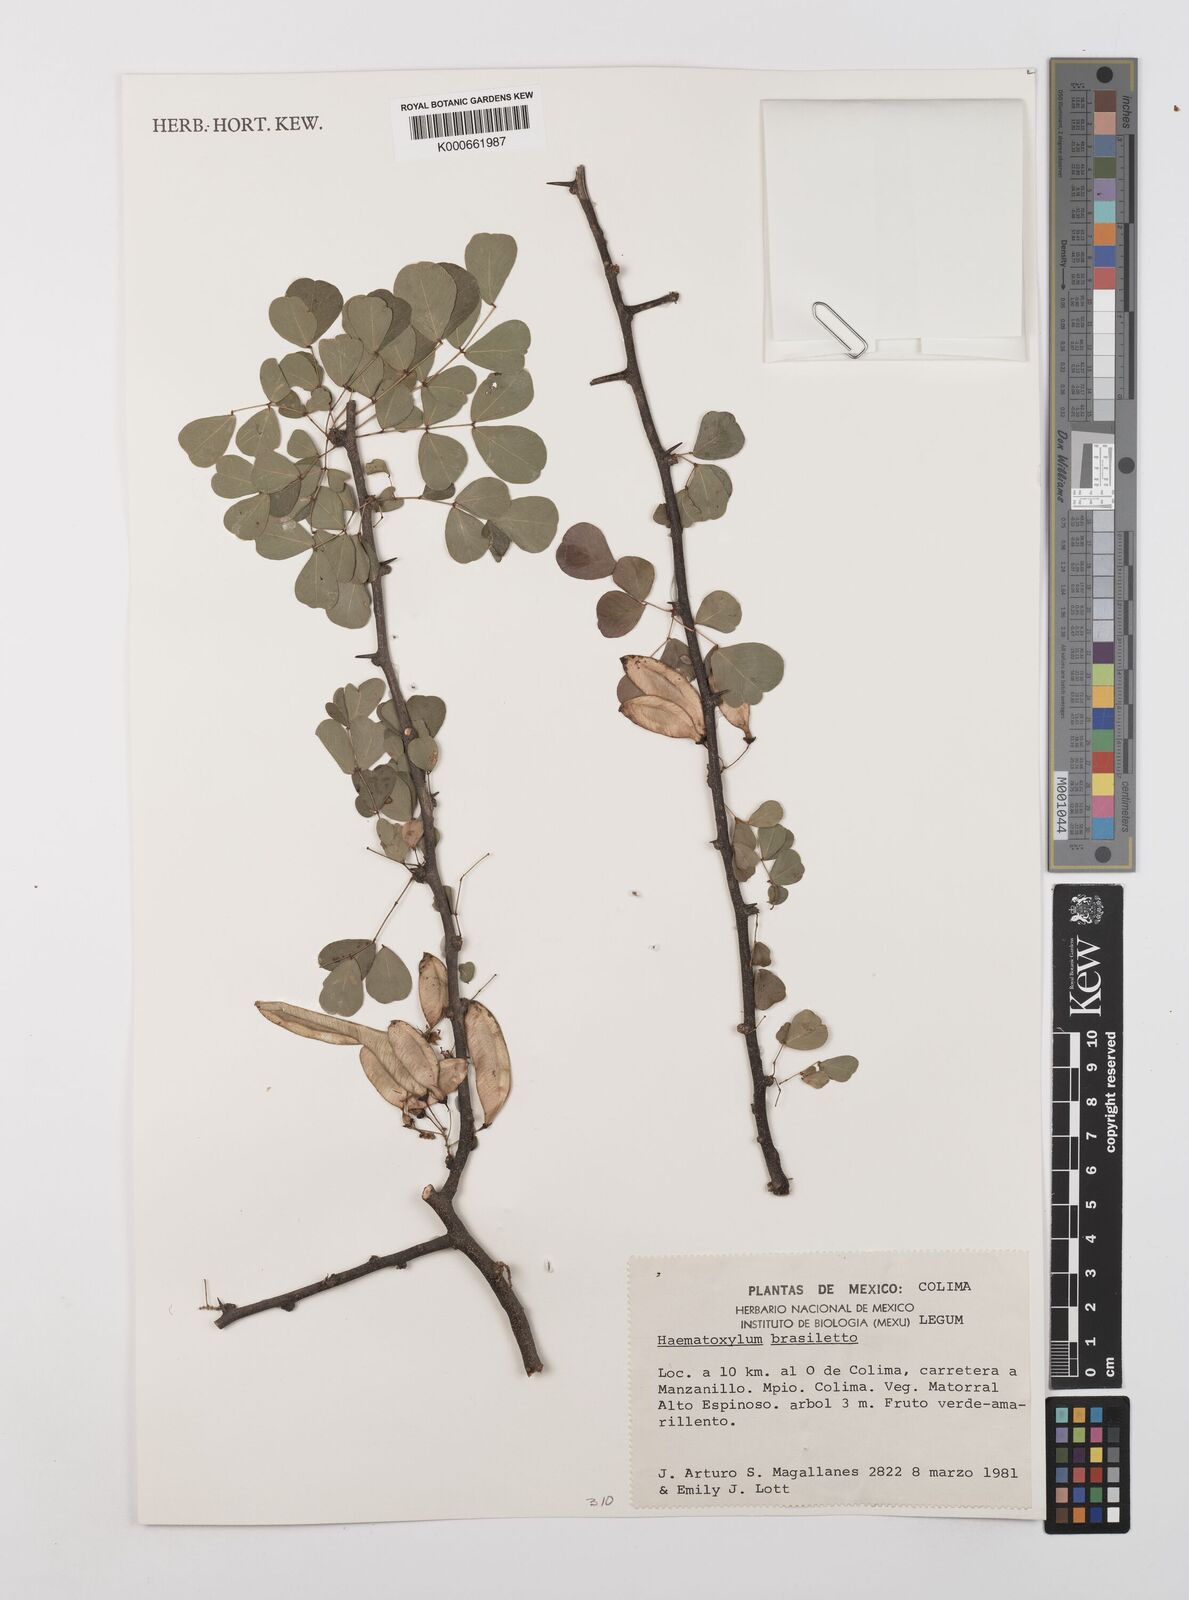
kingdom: Plantae
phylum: Tracheophyta
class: Magnoliopsida
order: Fabales
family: Fabaceae
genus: Haematoxylum
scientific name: Haematoxylum brasiletto
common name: Peachwood
